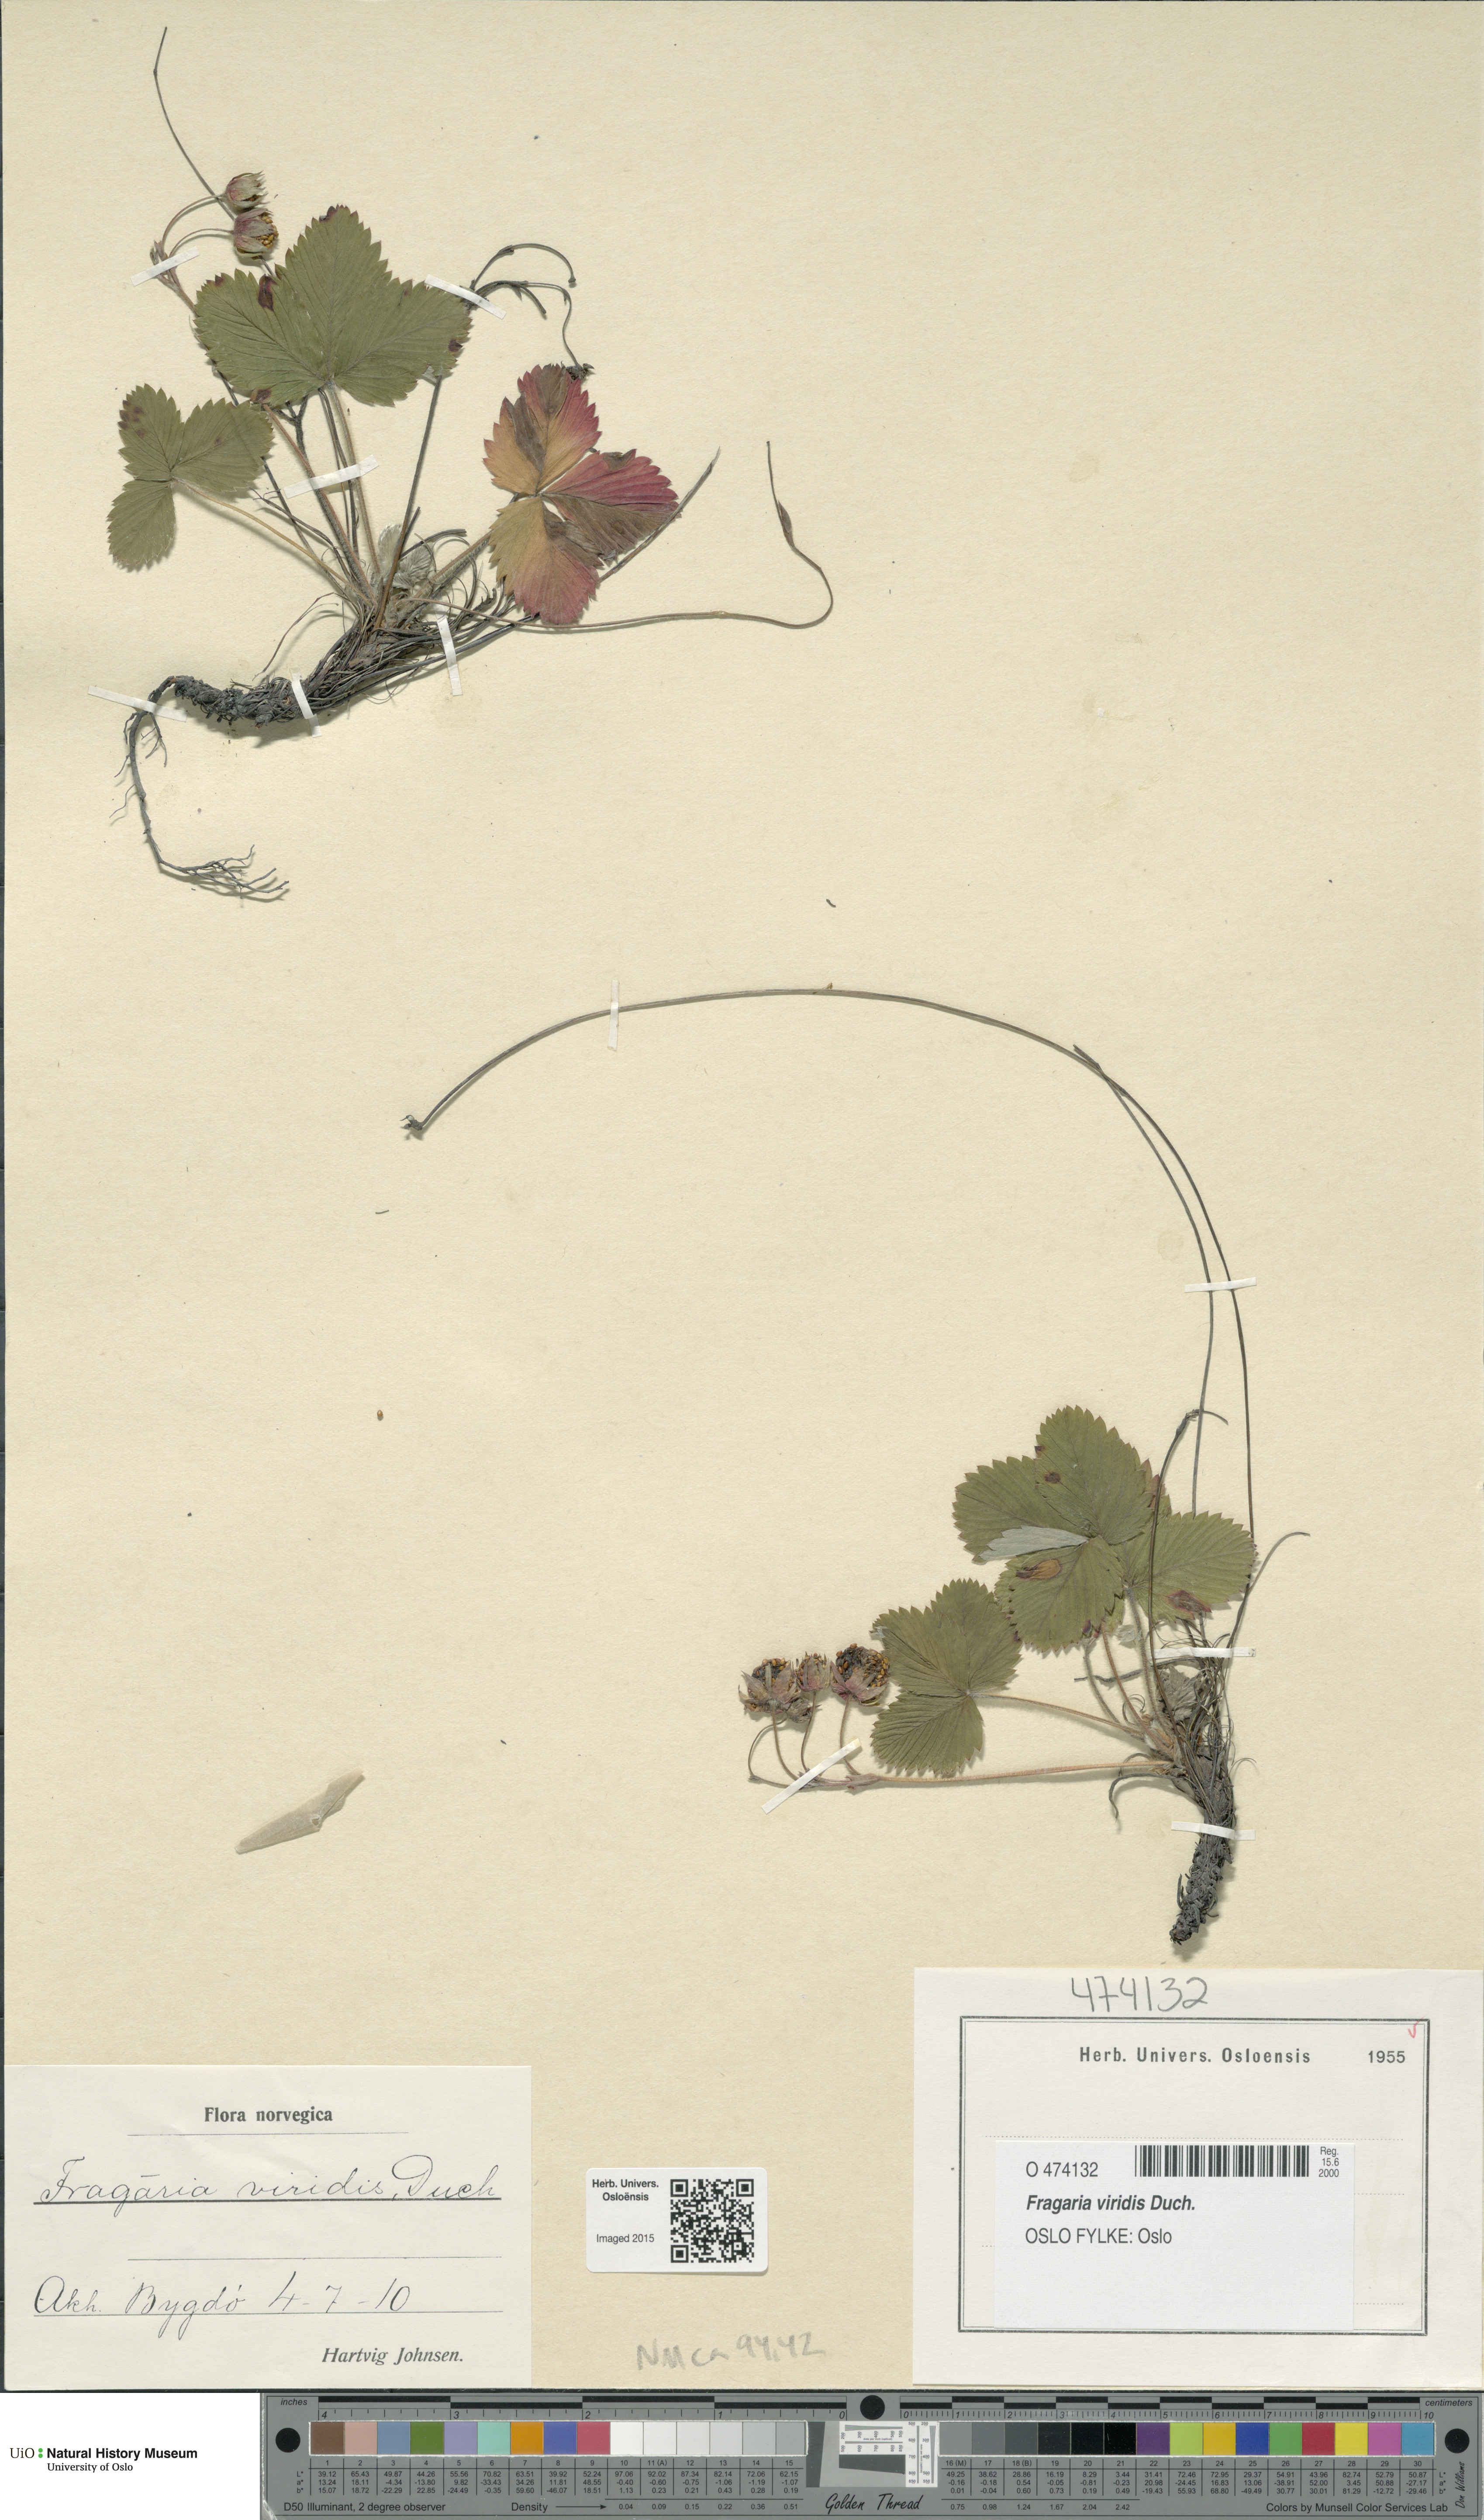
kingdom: Plantae
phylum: Tracheophyta
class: Magnoliopsida
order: Rosales
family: Rosaceae
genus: Fragaria
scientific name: Fragaria viridis
